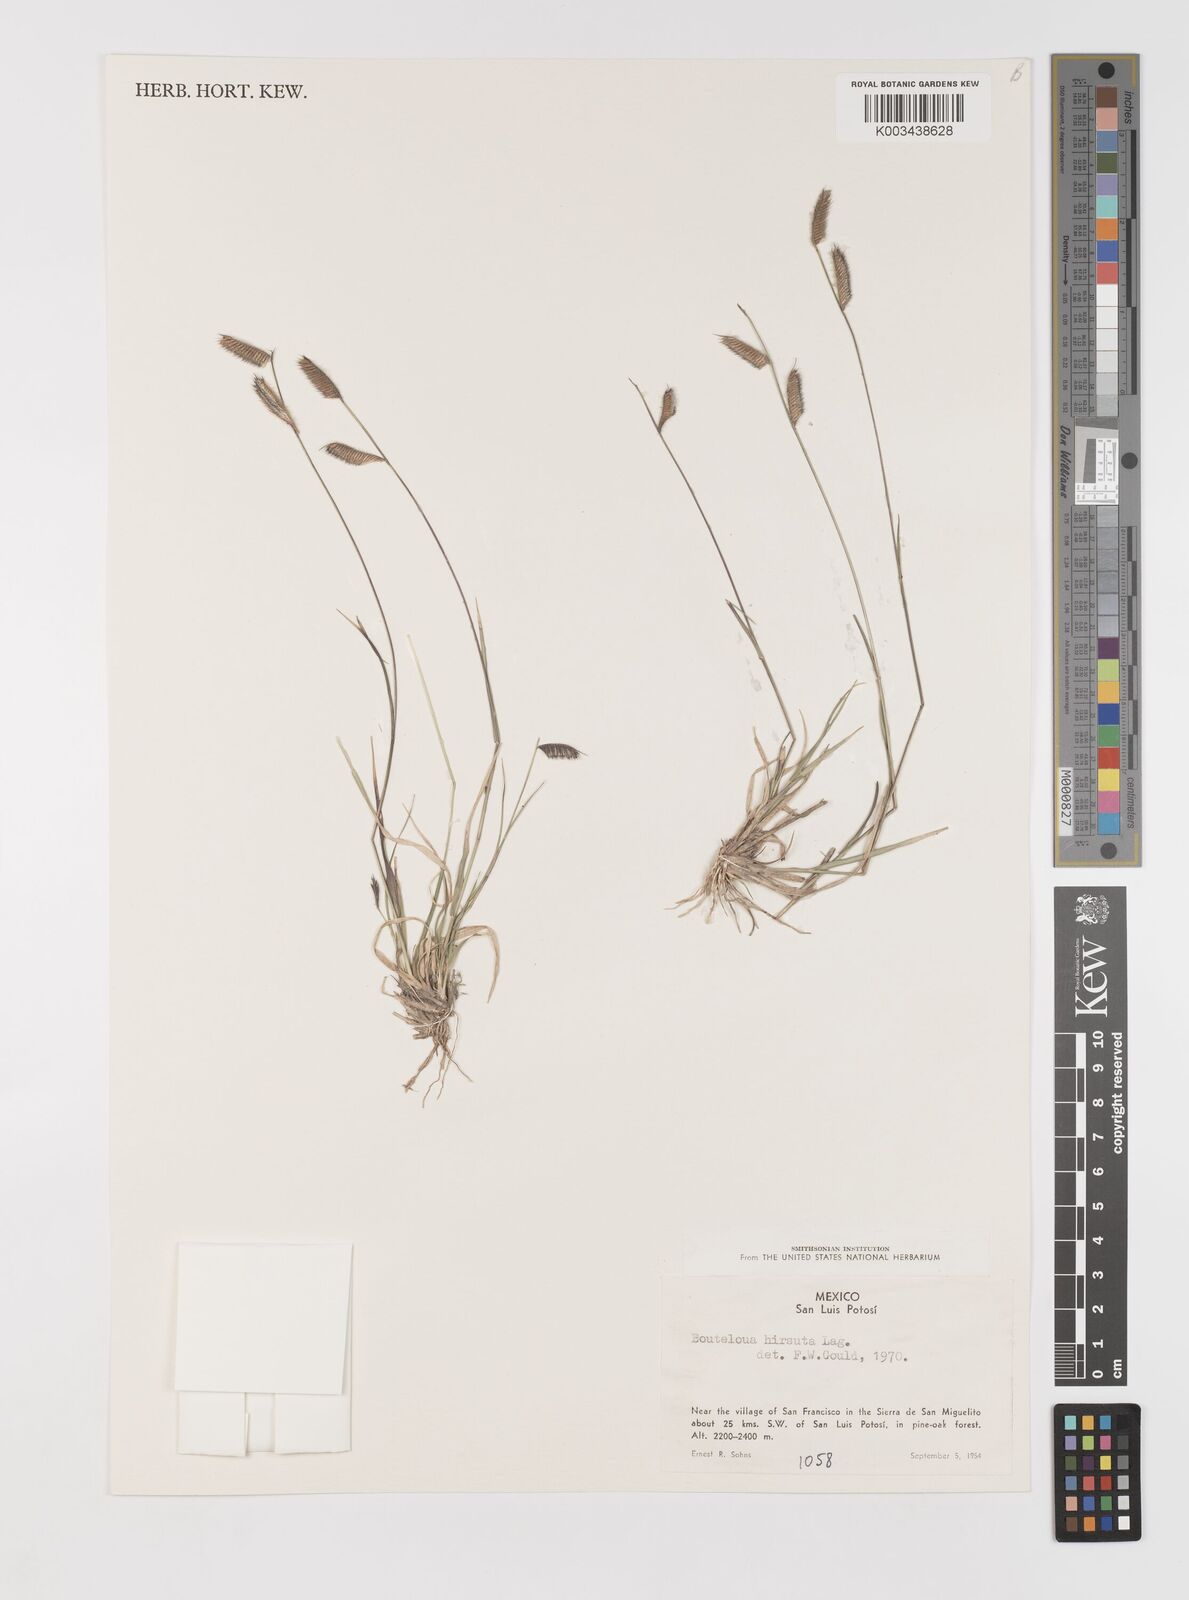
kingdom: Plantae
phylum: Tracheophyta
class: Liliopsida
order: Poales
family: Poaceae
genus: Bouteloua
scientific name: Bouteloua hirsuta
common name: Hairy grama
